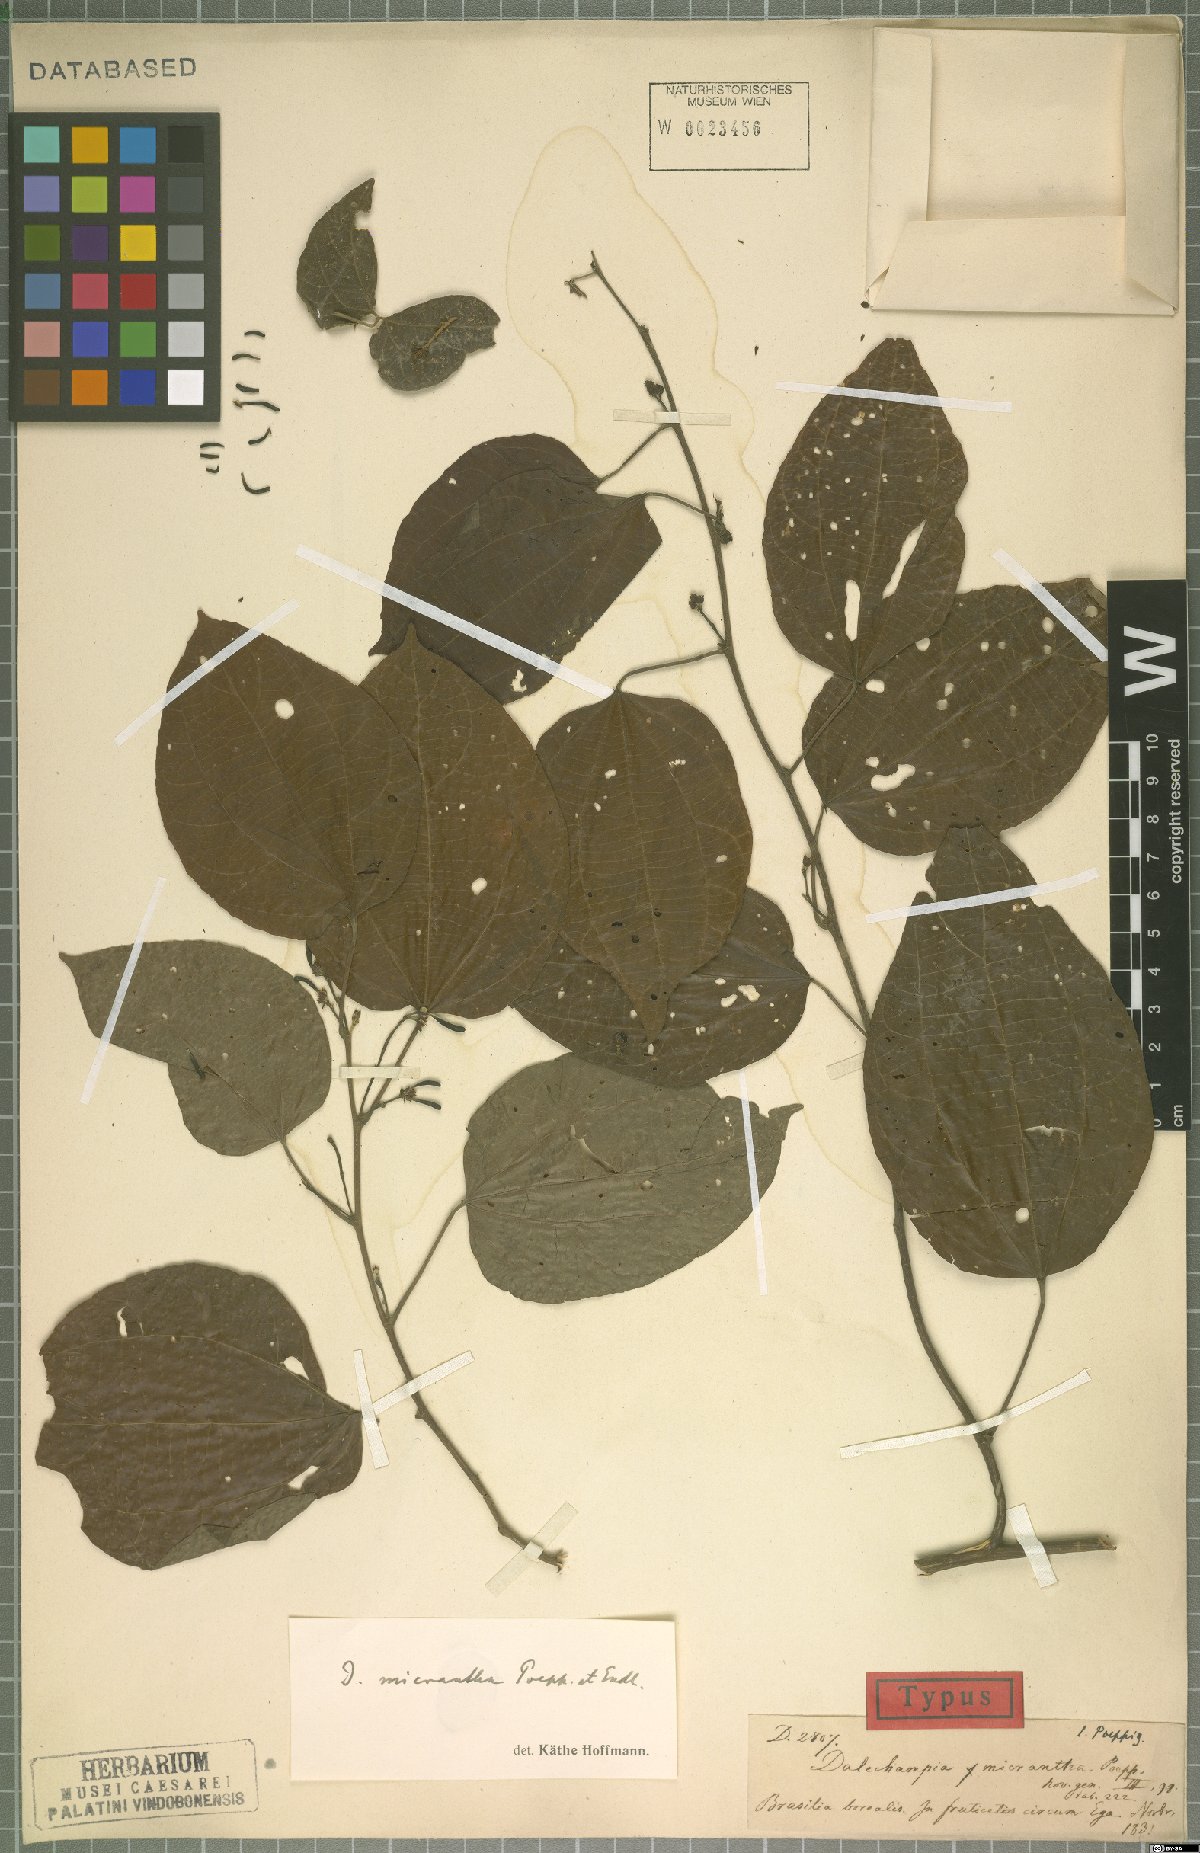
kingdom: Plantae
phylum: Tracheophyta
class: Magnoliopsida
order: Malpighiales
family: Euphorbiaceae
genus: Dalechampia
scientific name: Dalechampia micrantha
